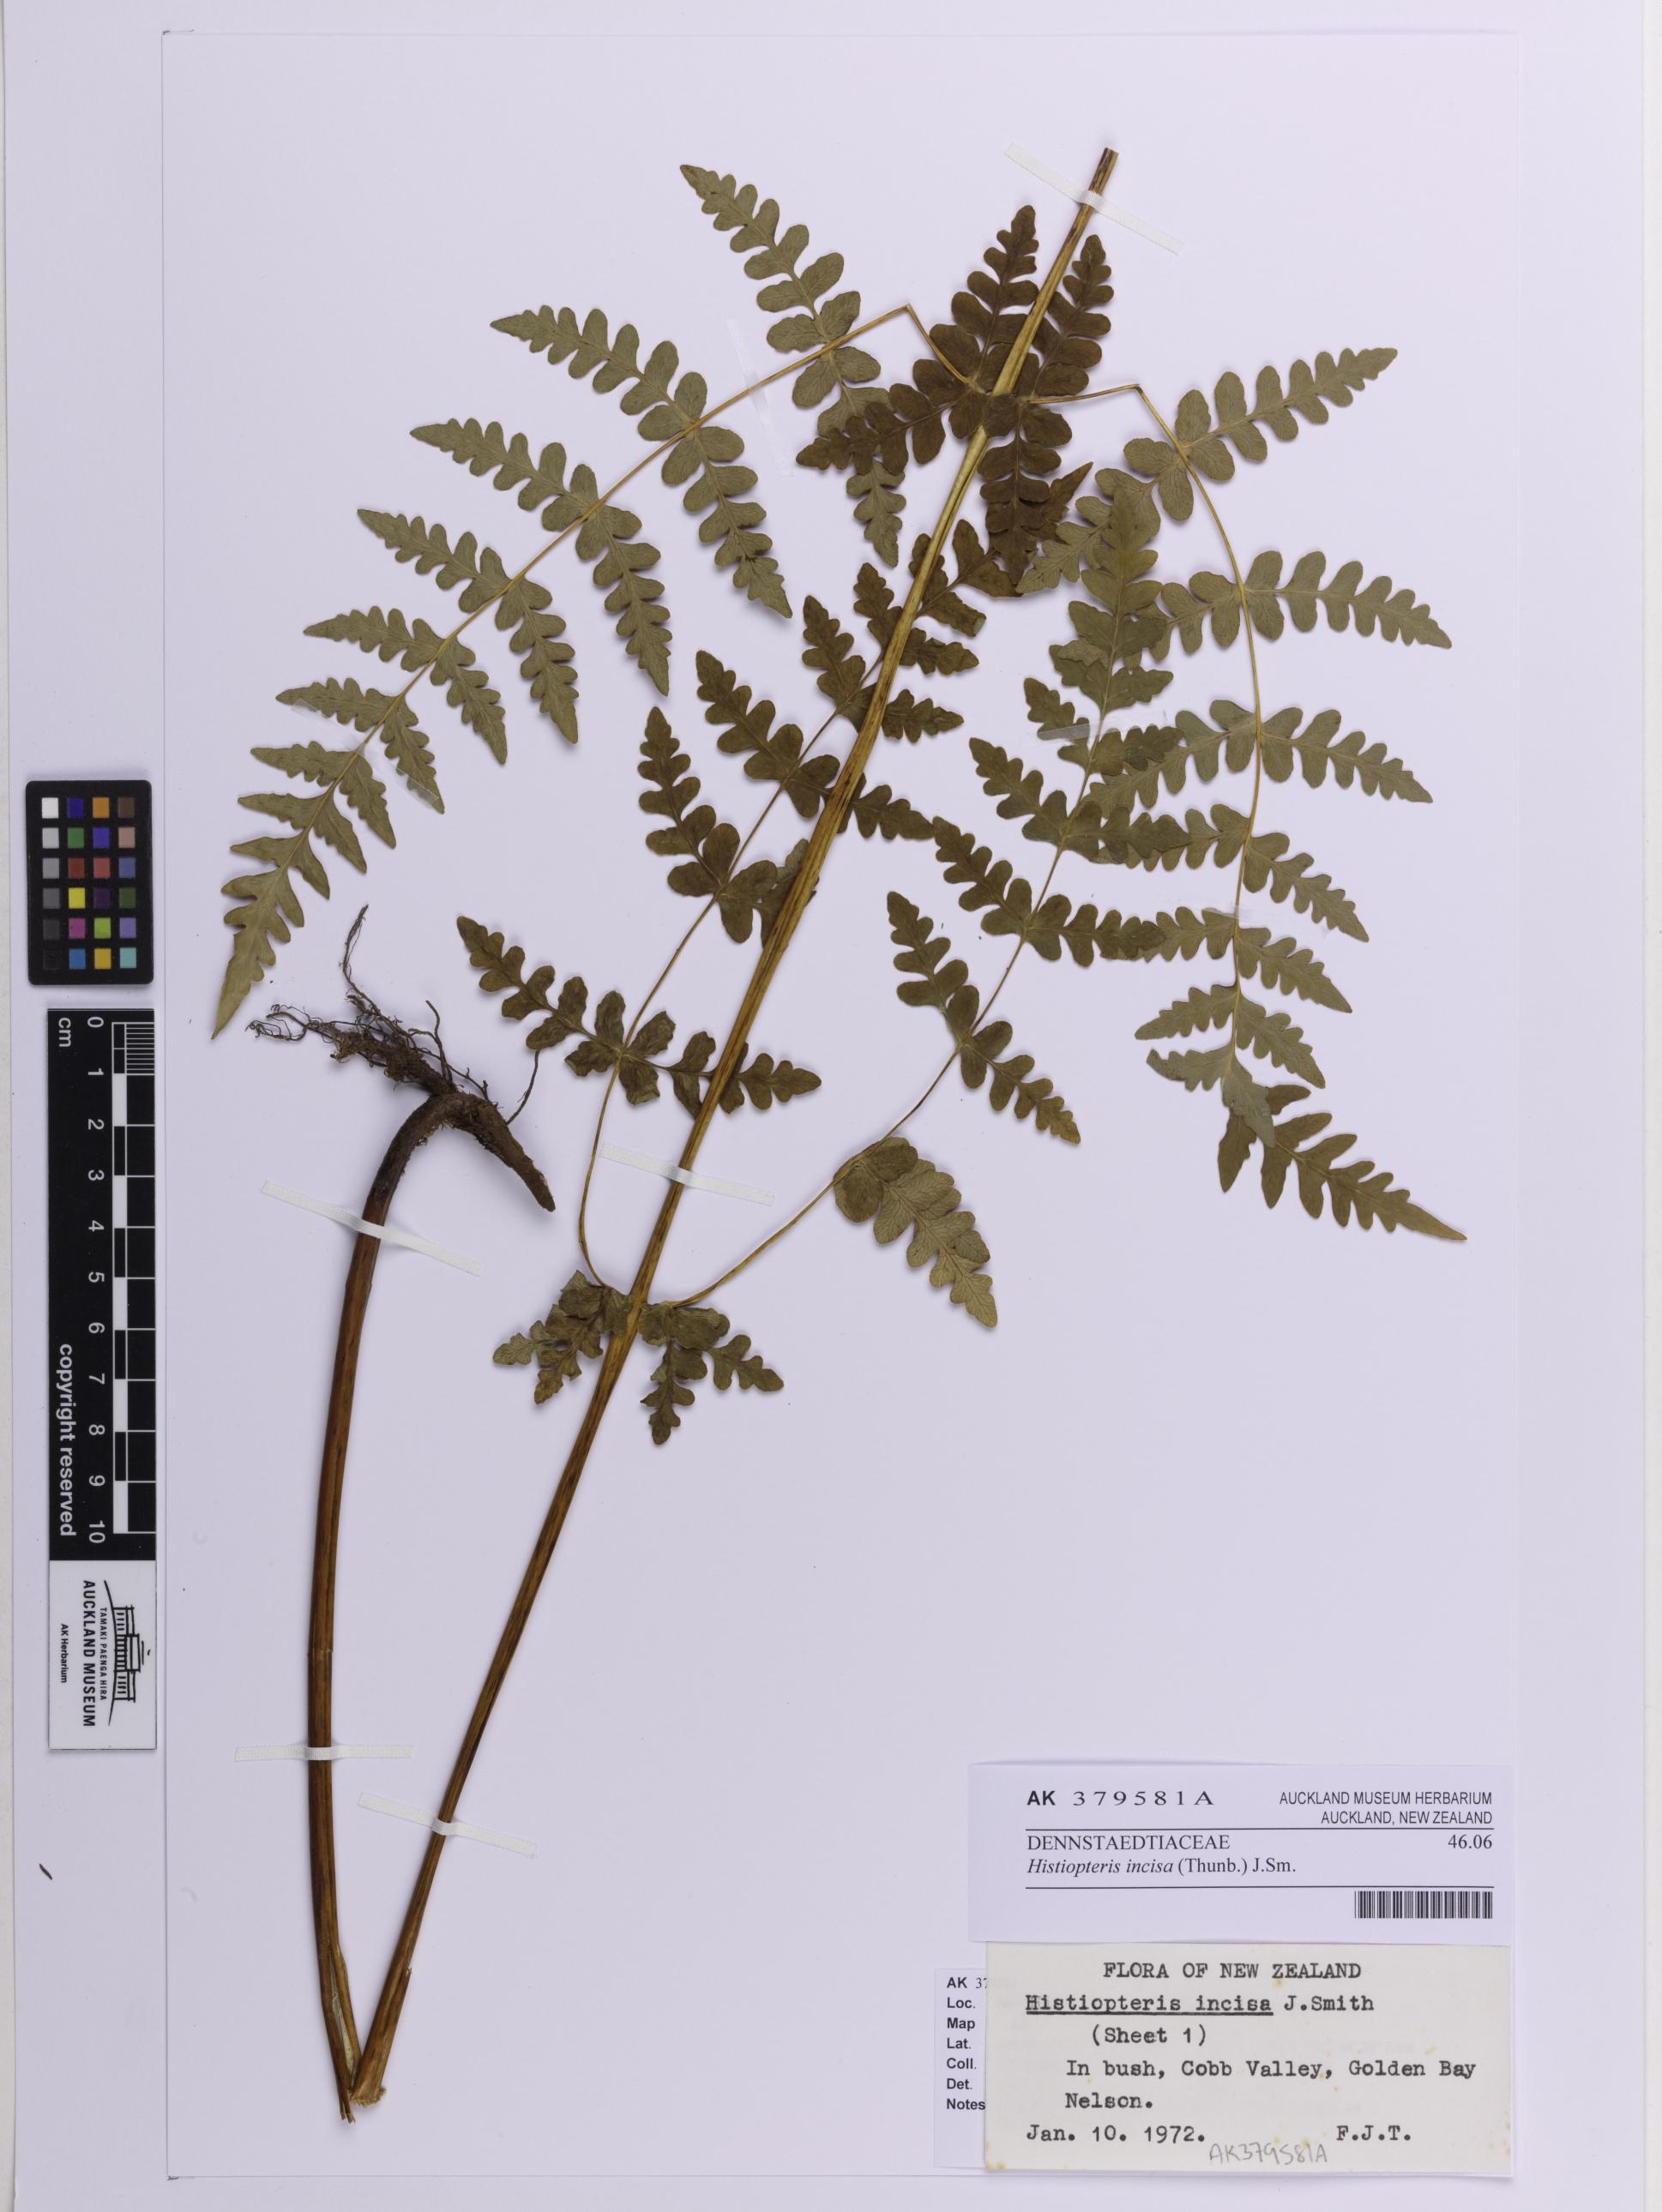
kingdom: Plantae
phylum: Tracheophyta
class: Polypodiopsida
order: Polypodiales
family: Dennstaedtiaceae
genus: Histiopteris
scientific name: Histiopteris incisa
